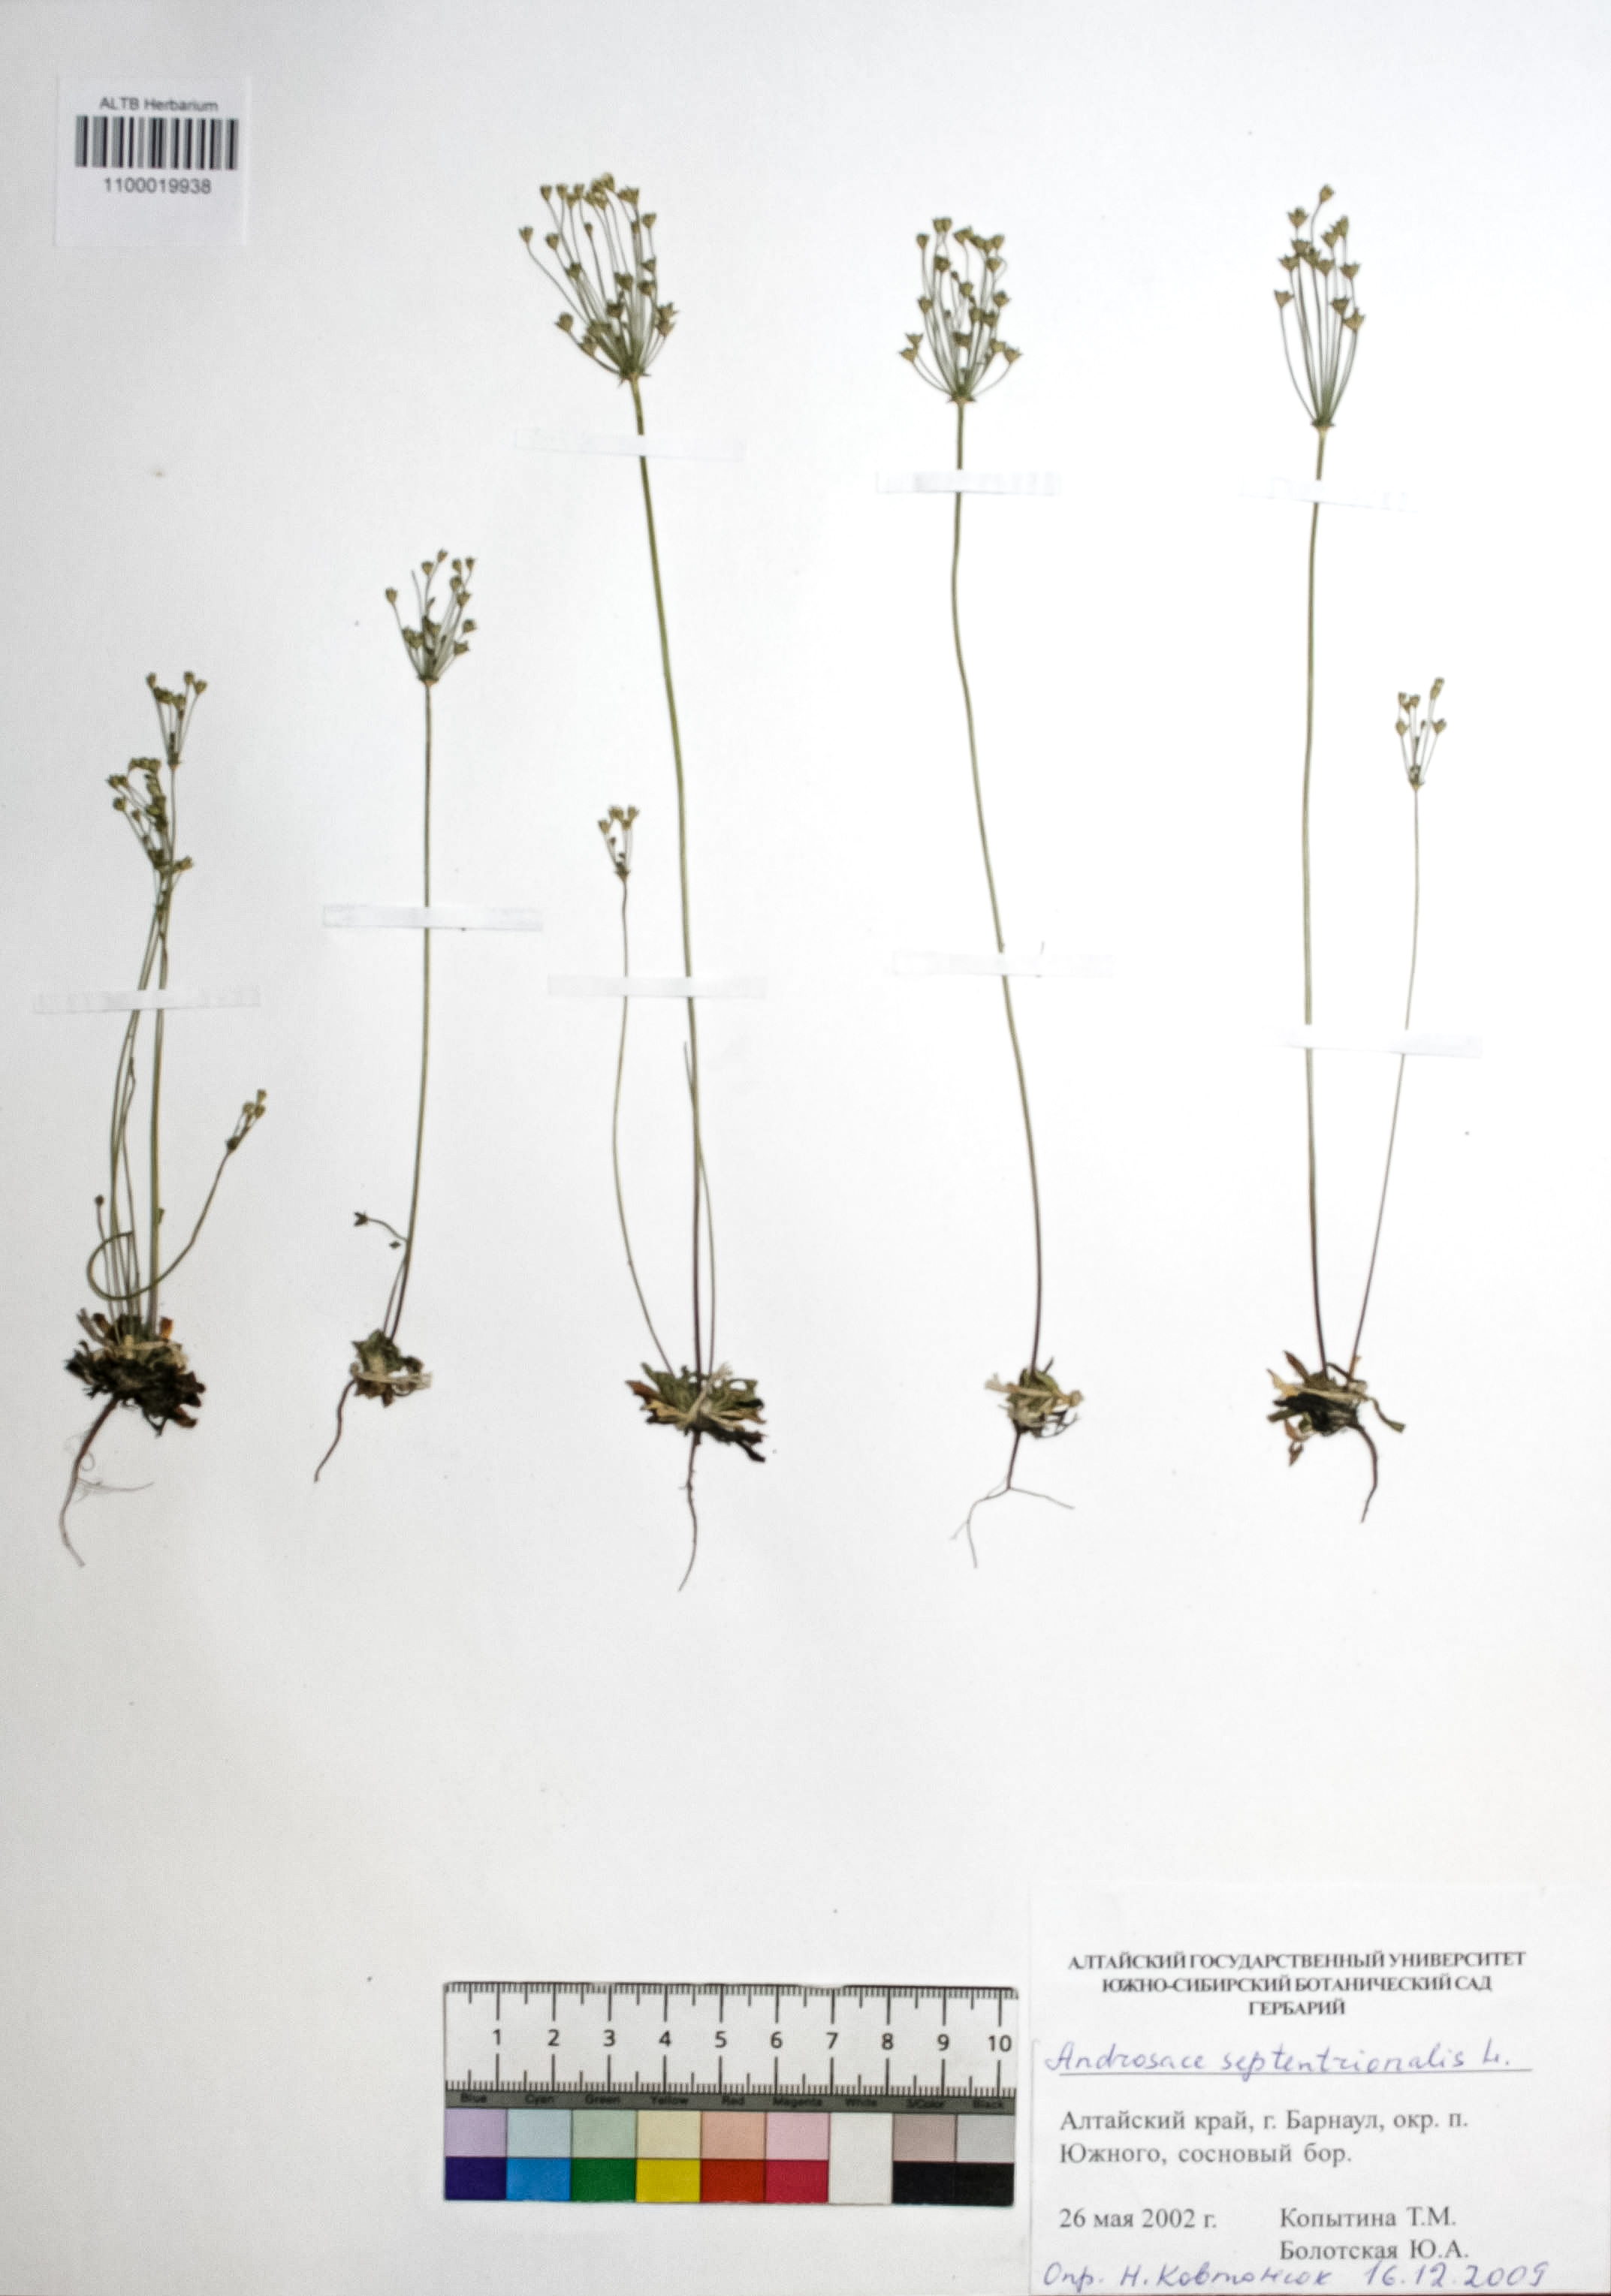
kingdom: Plantae
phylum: Tracheophyta
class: Magnoliopsida
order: Ericales
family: Primulaceae
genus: Androsace
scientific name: Androsace septentrionalis
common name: Hairy northern fairy-candelabra
